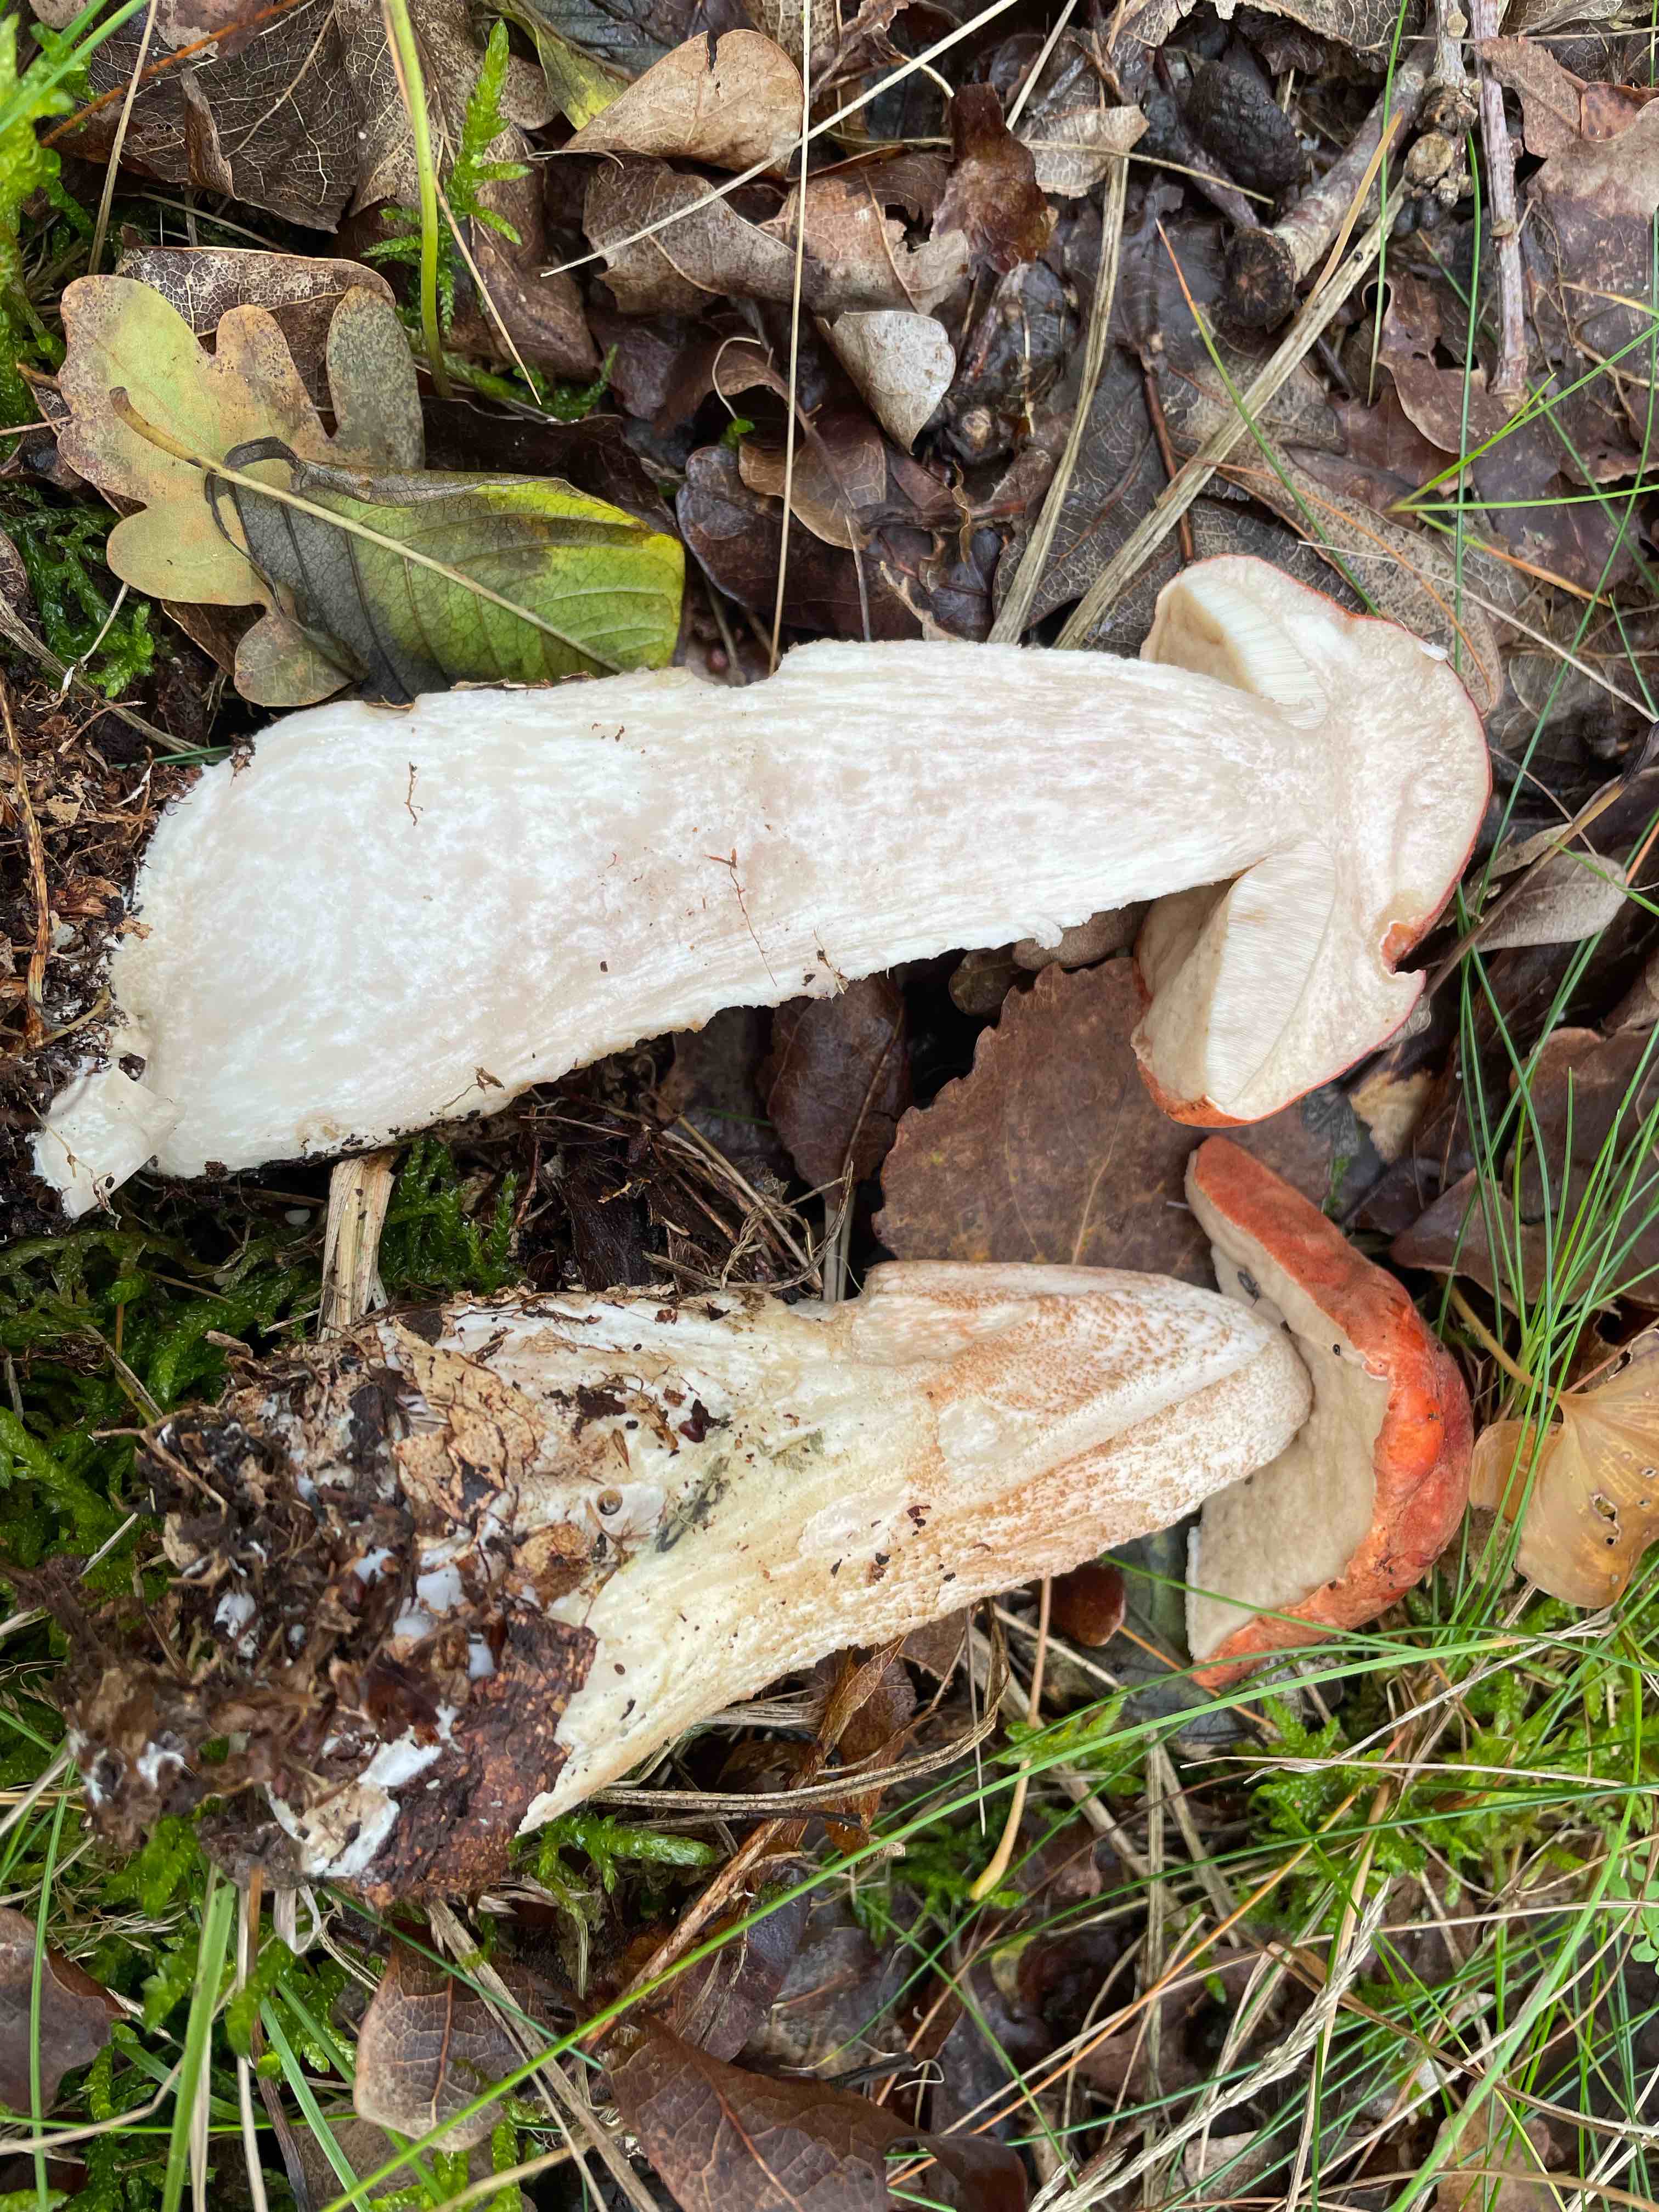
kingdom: Fungi
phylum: Basidiomycota
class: Agaricomycetes
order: Boletales
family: Boletaceae
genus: Leccinum
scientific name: Leccinum albostipitatum
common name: aspe-skælrørhat
